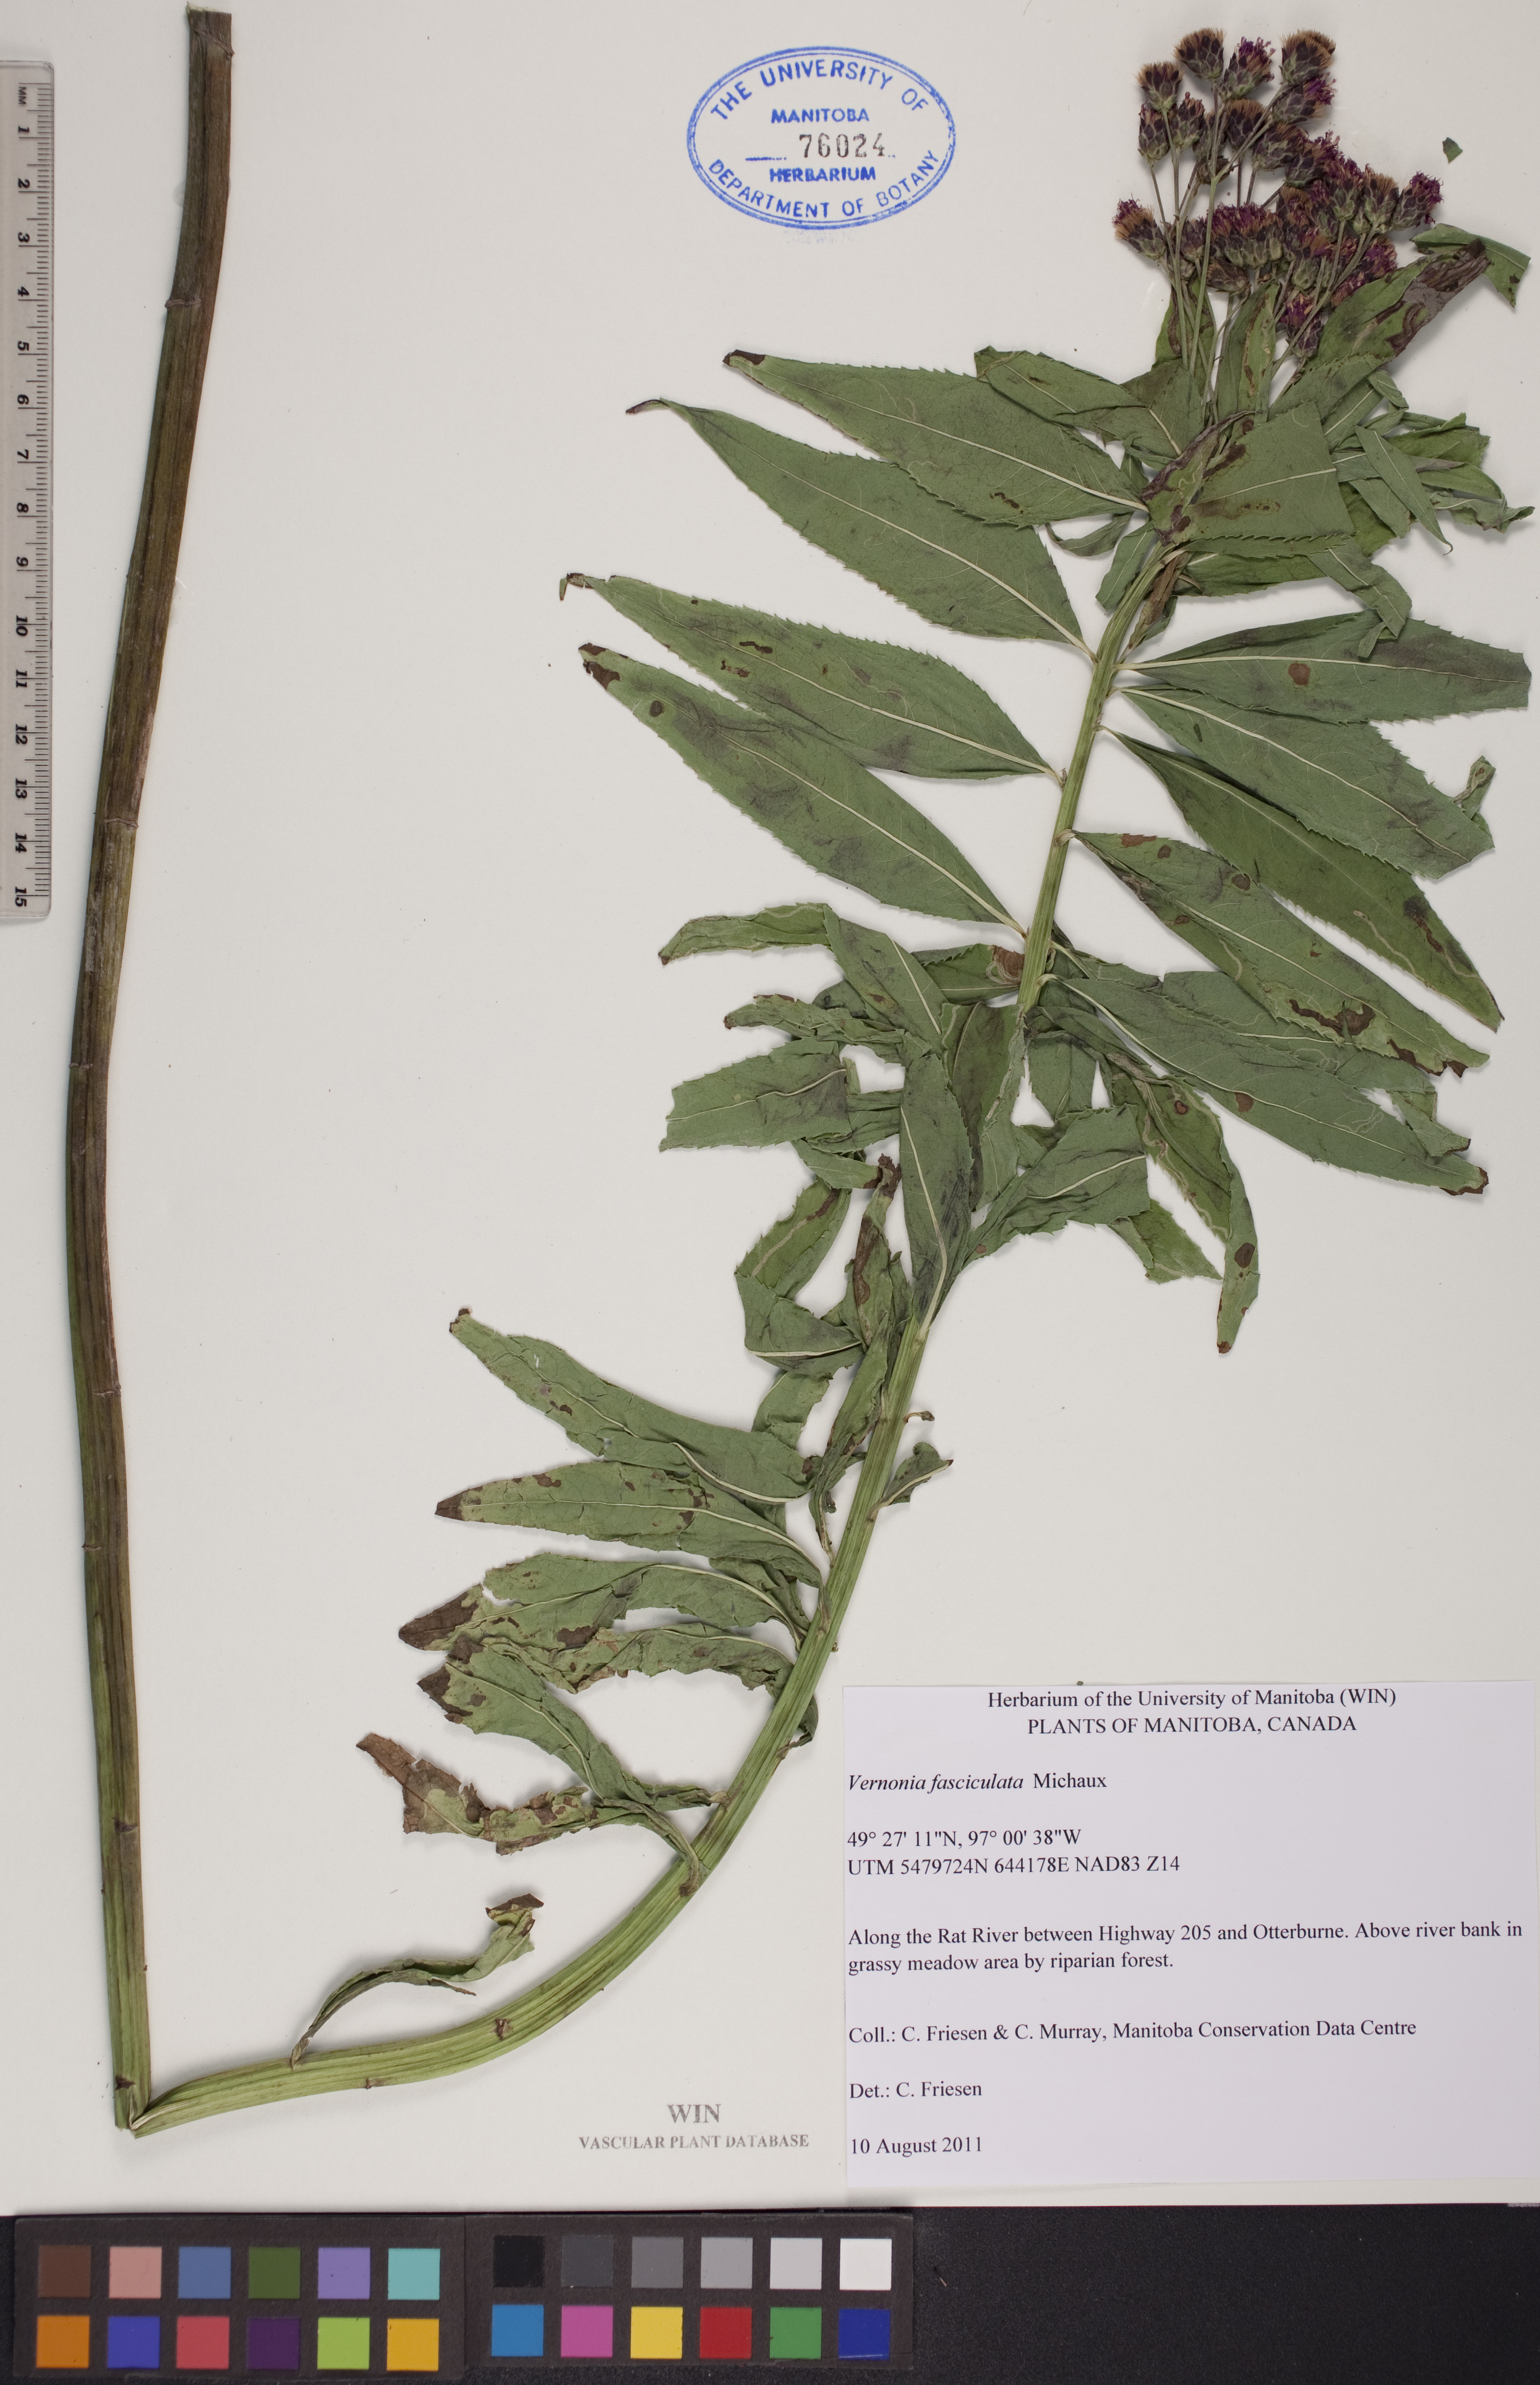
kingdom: Plantae
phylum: Tracheophyta
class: Magnoliopsida
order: Asterales
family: Asteraceae
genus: Vernonia
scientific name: Vernonia fasciculata
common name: Fascicled ironweed
